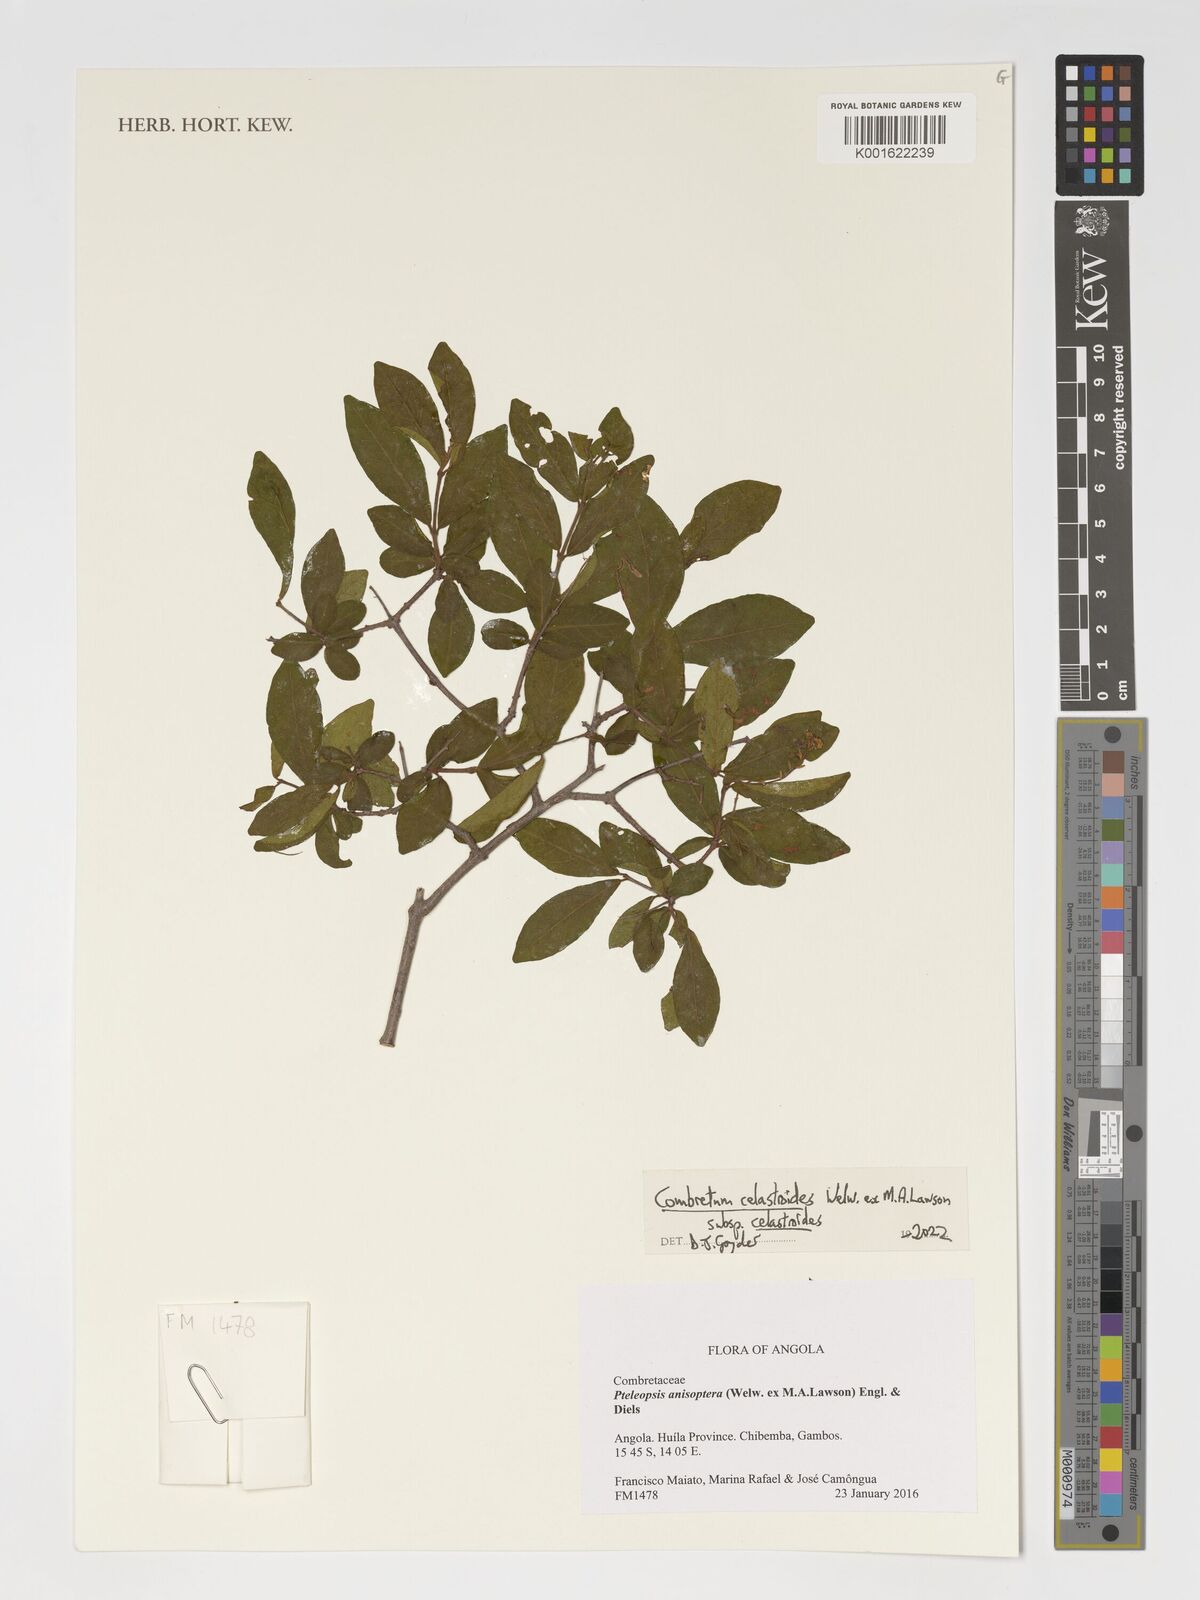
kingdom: Plantae
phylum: Tracheophyta
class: Magnoliopsida
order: Myrtales
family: Combretaceae
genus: Combretum
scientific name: Combretum celastroides
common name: Jesse-bush combretum
